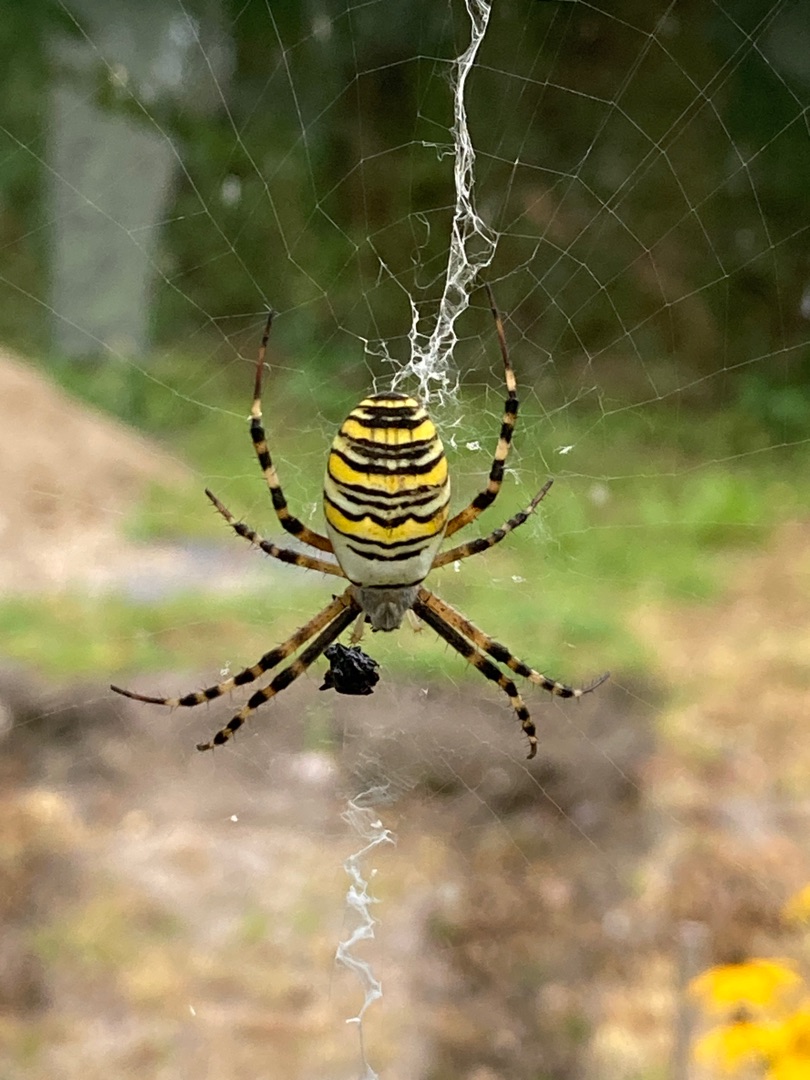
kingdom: Animalia
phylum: Arthropoda
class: Arachnida
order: Araneae
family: Araneidae
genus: Argiope
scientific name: Argiope bruennichi
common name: Hvepseedderkop
